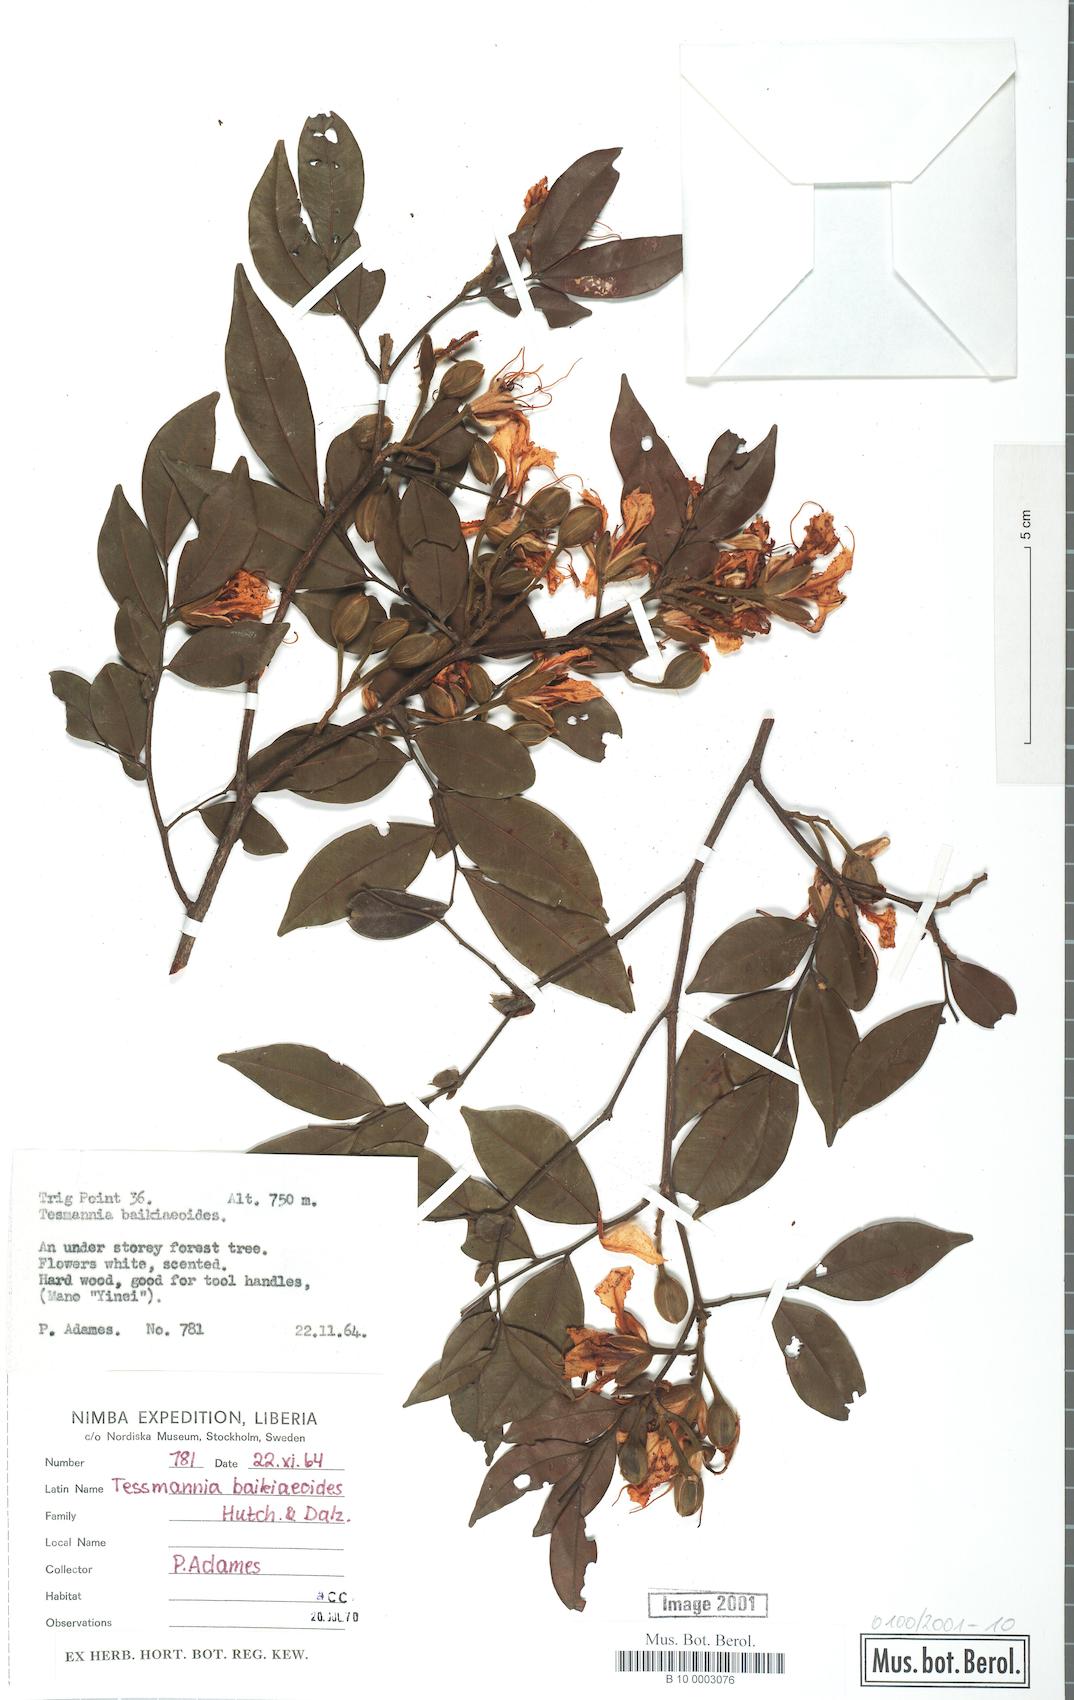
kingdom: Plantae
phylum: Tracheophyta
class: Magnoliopsida
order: Fabales
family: Fabaceae
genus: Tessmannia
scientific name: Tessmannia baikiaeoides
